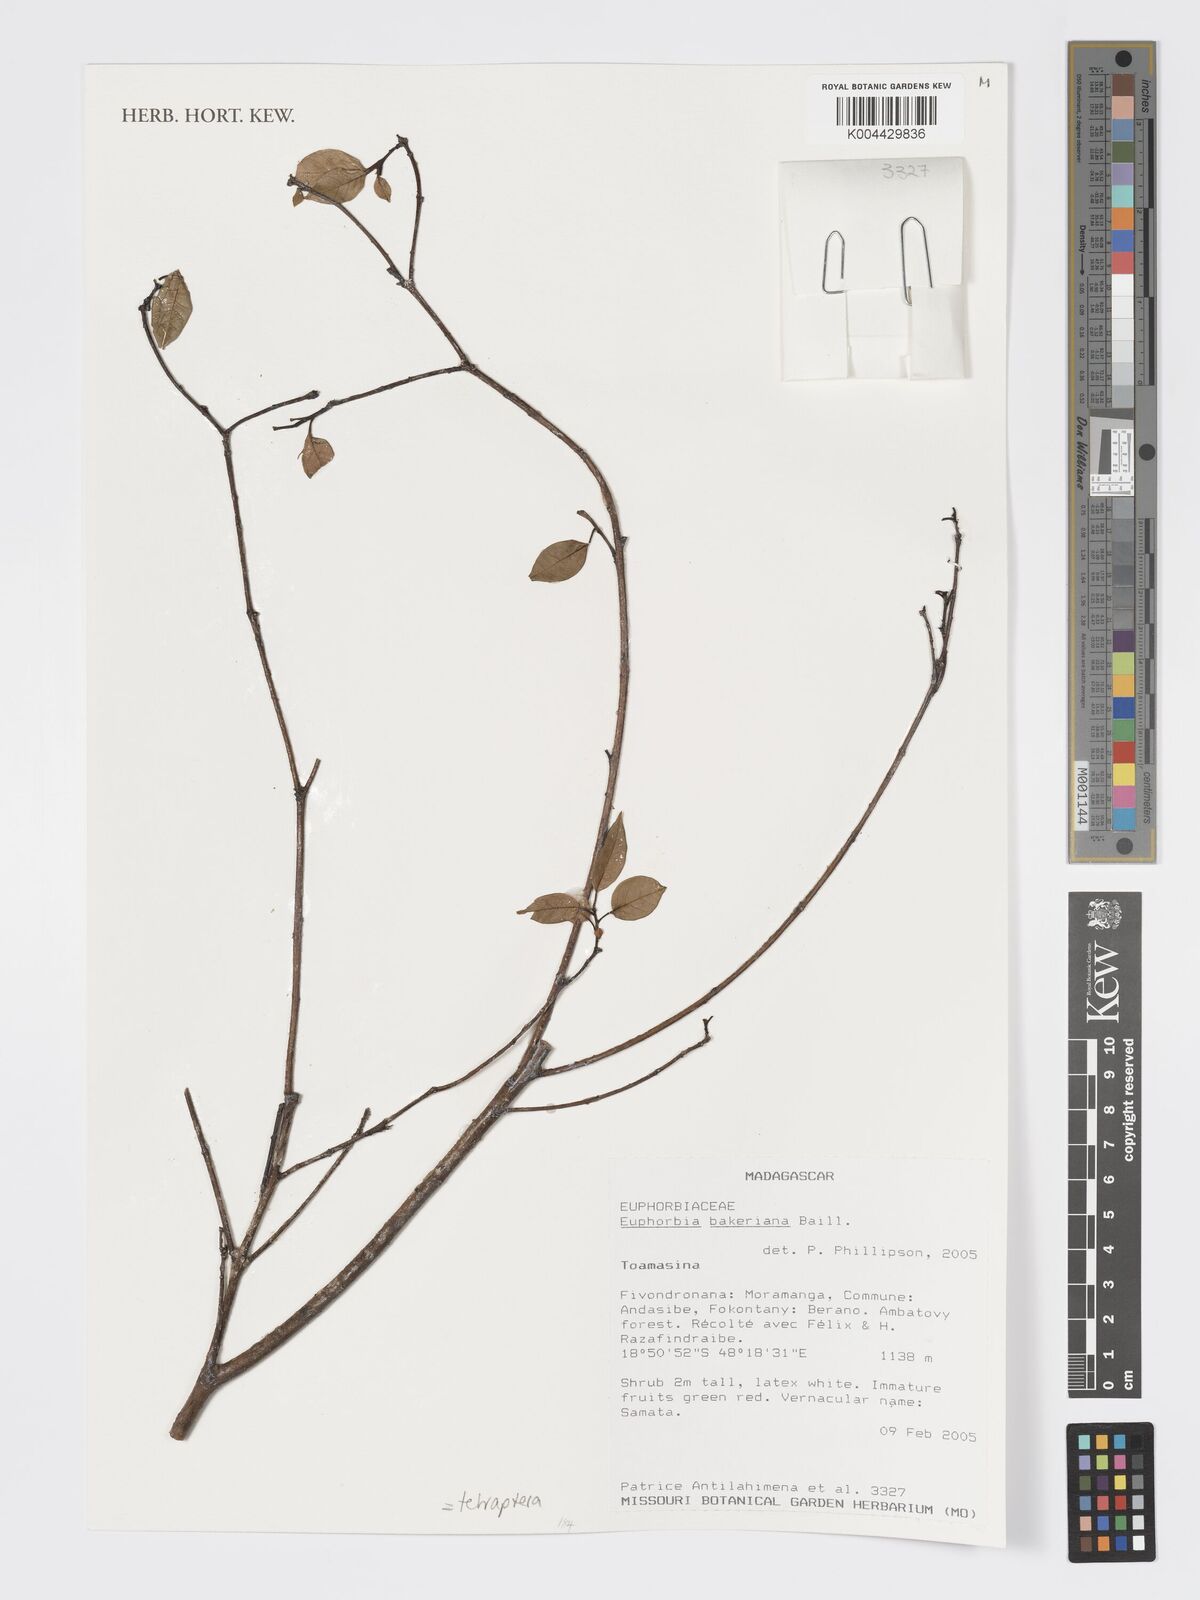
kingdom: Plantae
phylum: Tracheophyta
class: Magnoliopsida
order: Malpighiales
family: Euphorbiaceae
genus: Euphorbia
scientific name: Euphorbia tetraptera
